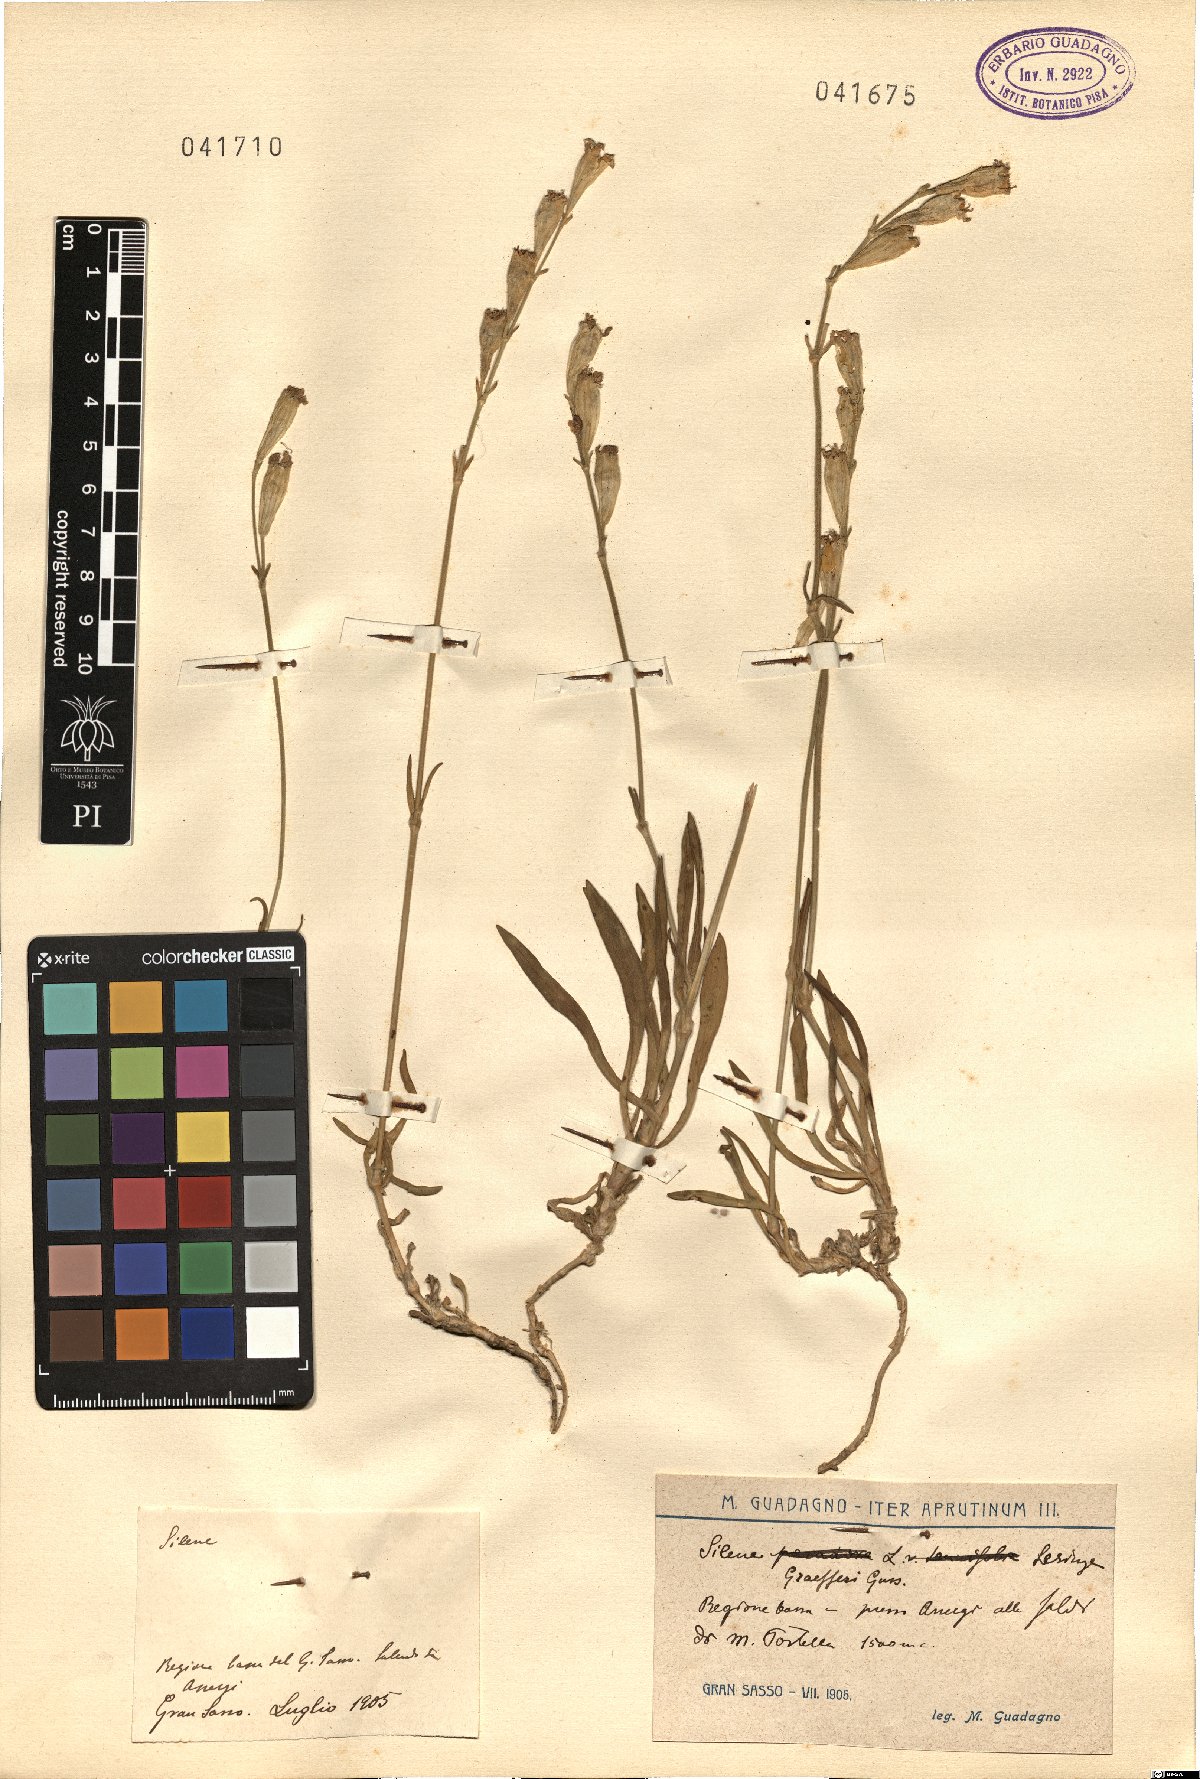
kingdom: Plantae
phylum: Tracheophyta
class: Magnoliopsida
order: Caryophyllales
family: Caryophyllaceae
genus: Silene
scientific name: Silene ciliata
